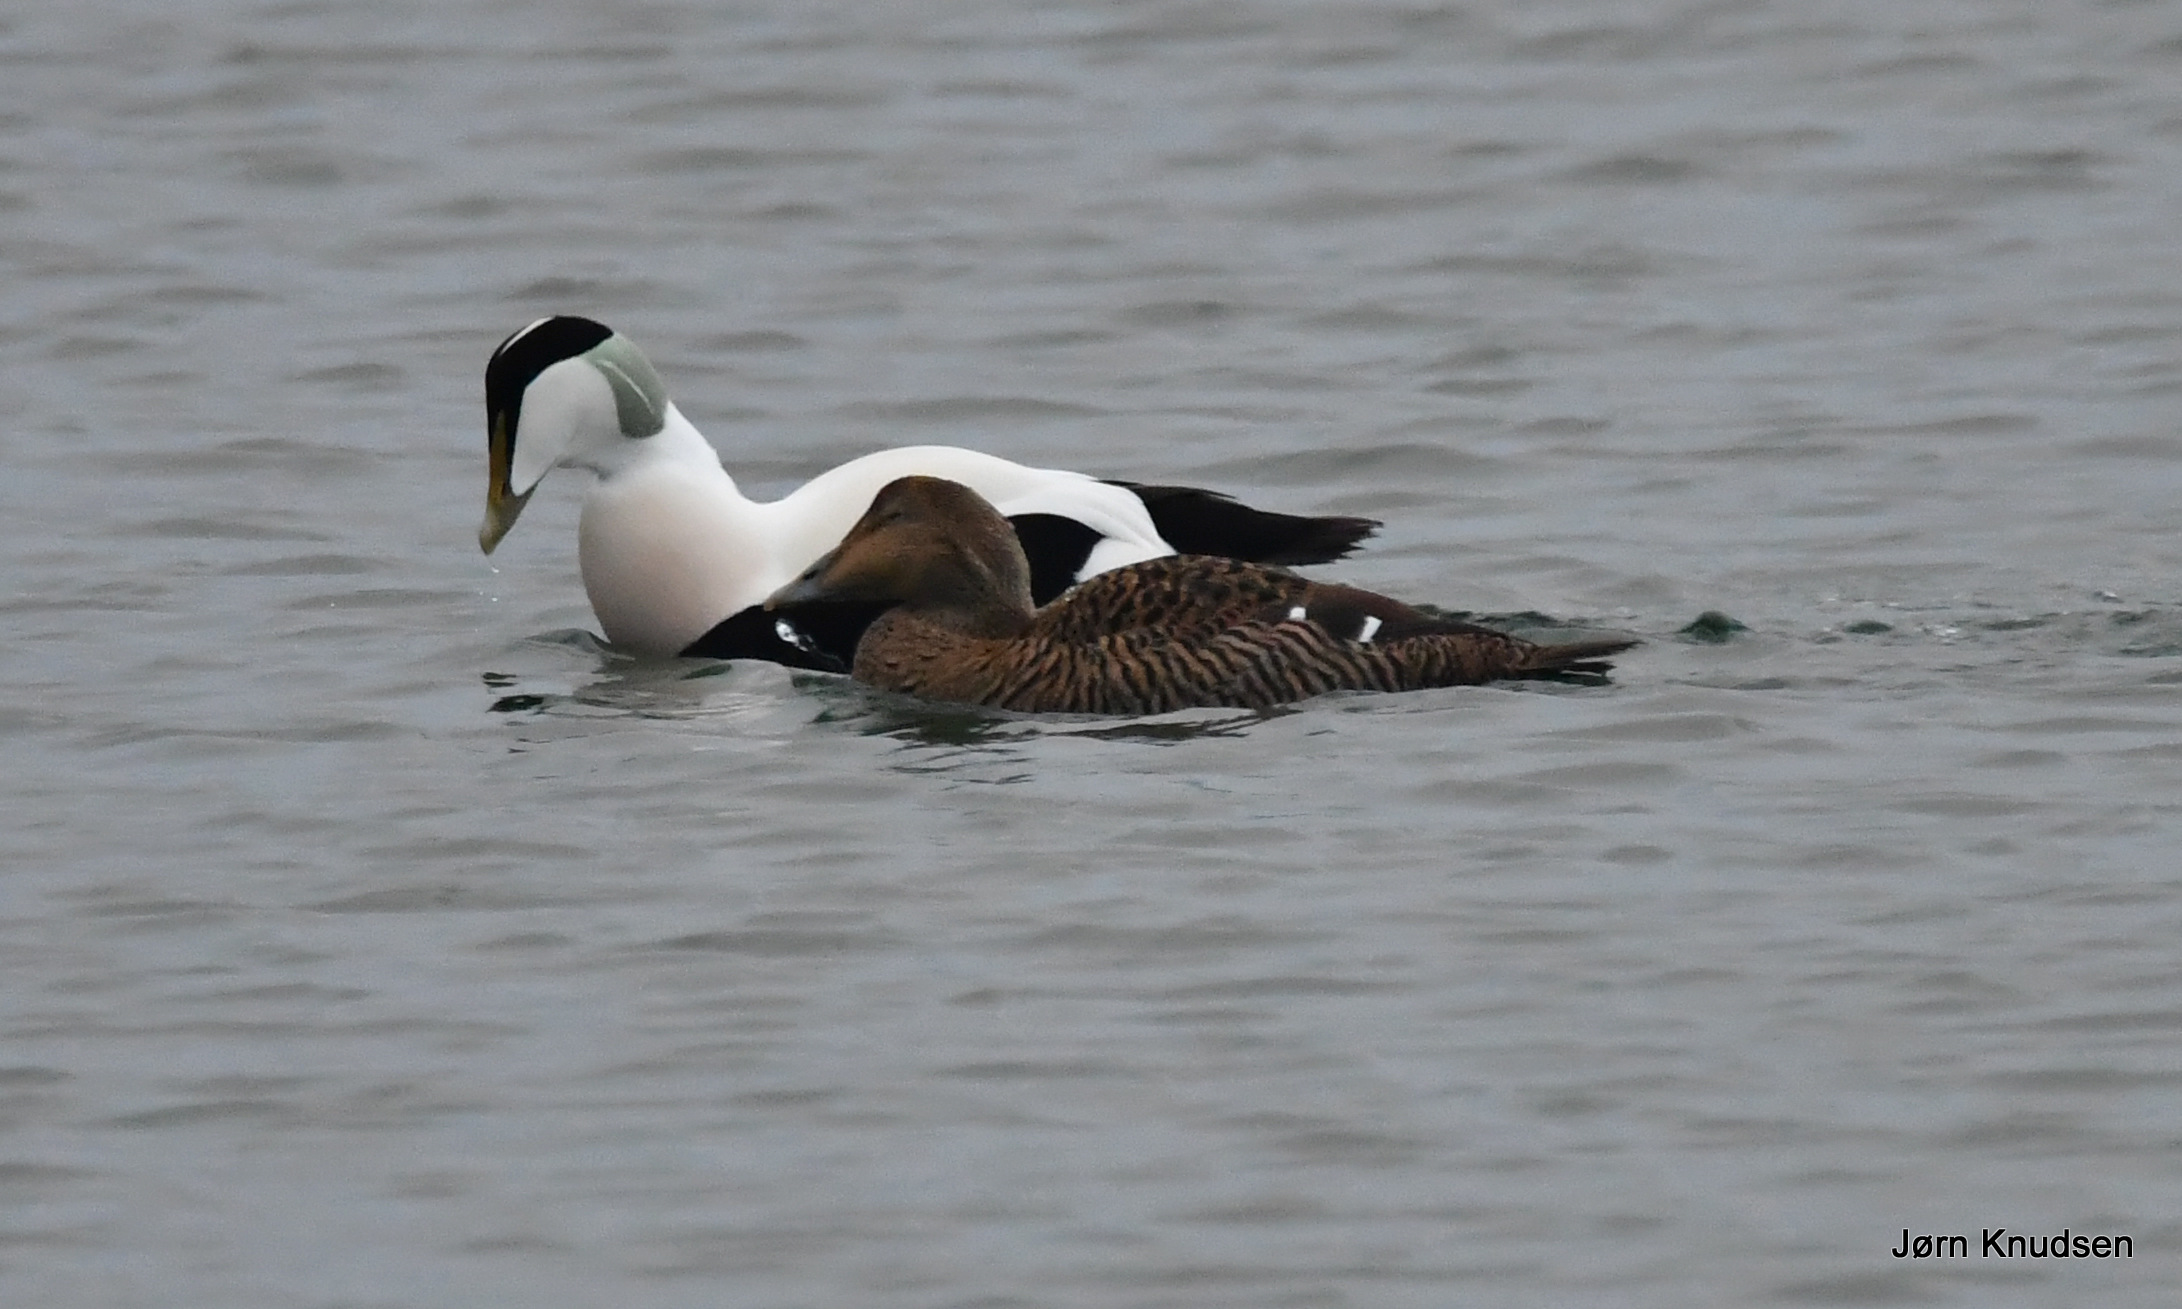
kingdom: Animalia
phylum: Chordata
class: Aves
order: Anseriformes
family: Anatidae
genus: Somateria
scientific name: Somateria mollissima
